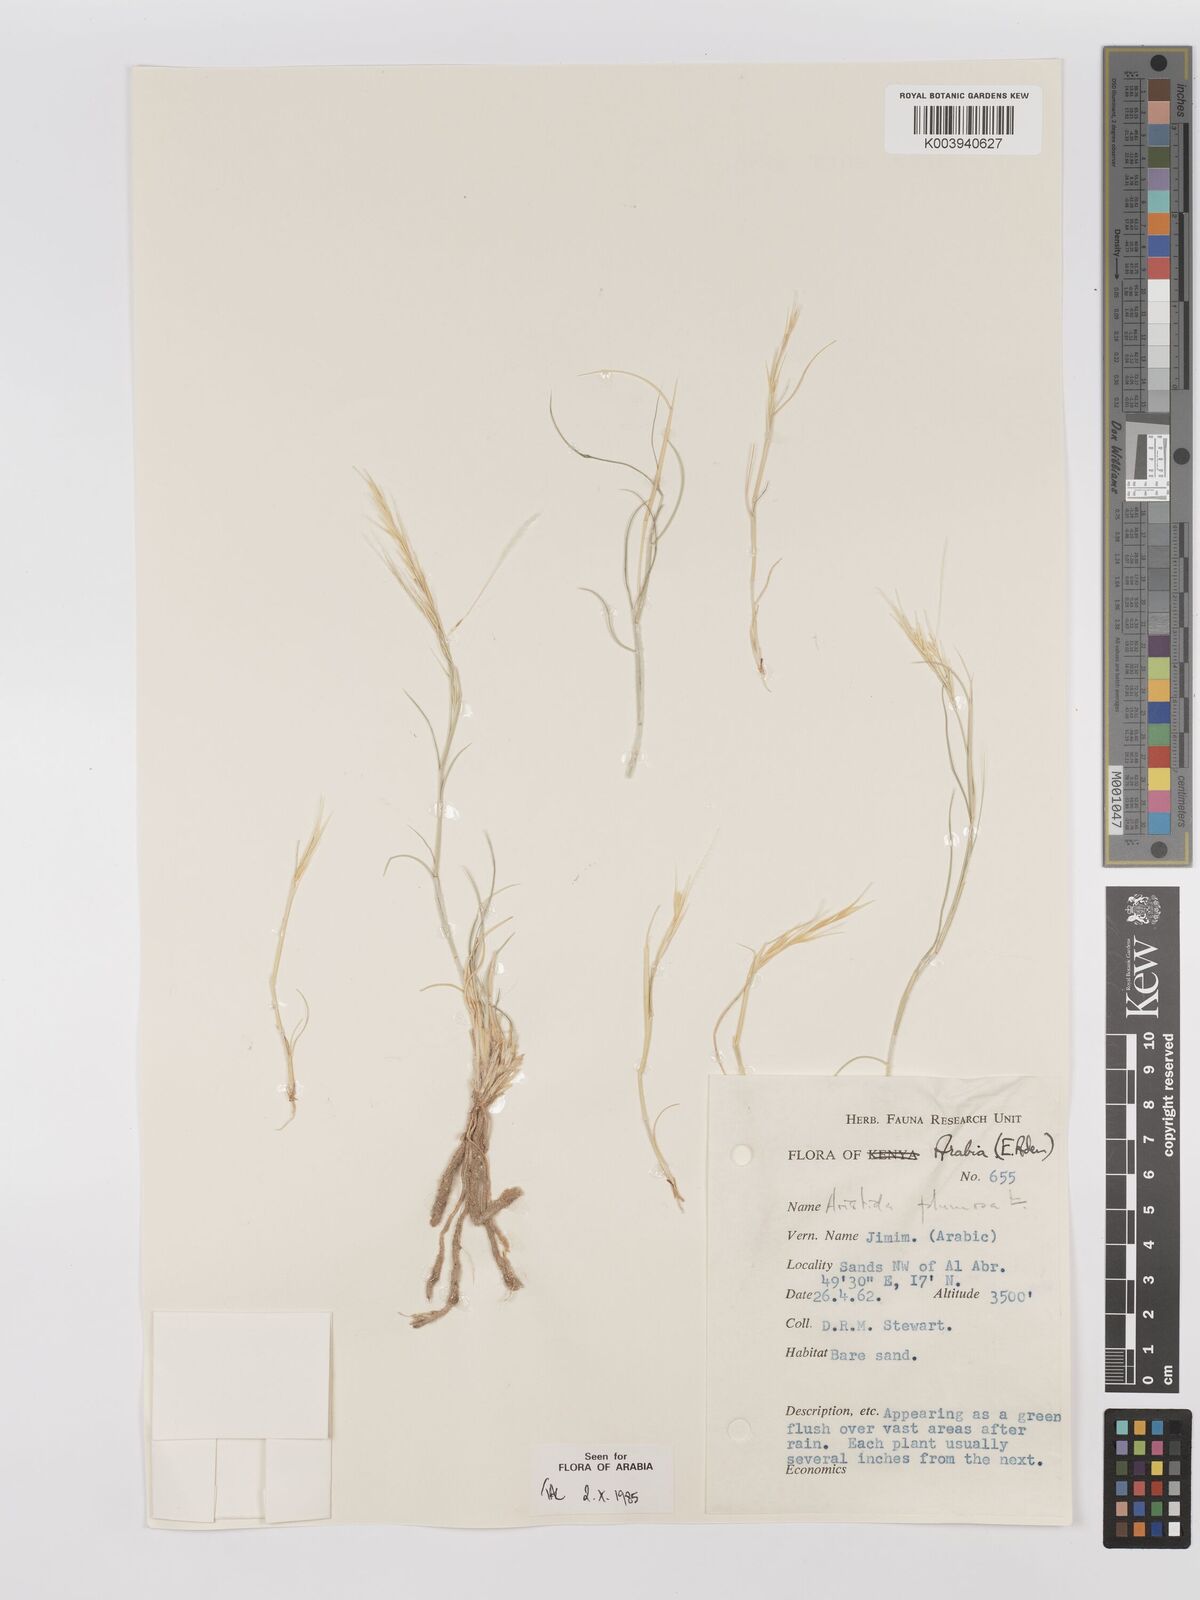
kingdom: Plantae
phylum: Tracheophyta
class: Liliopsida
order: Poales
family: Poaceae
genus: Stipagrostis
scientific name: Stipagrostis plumosa
